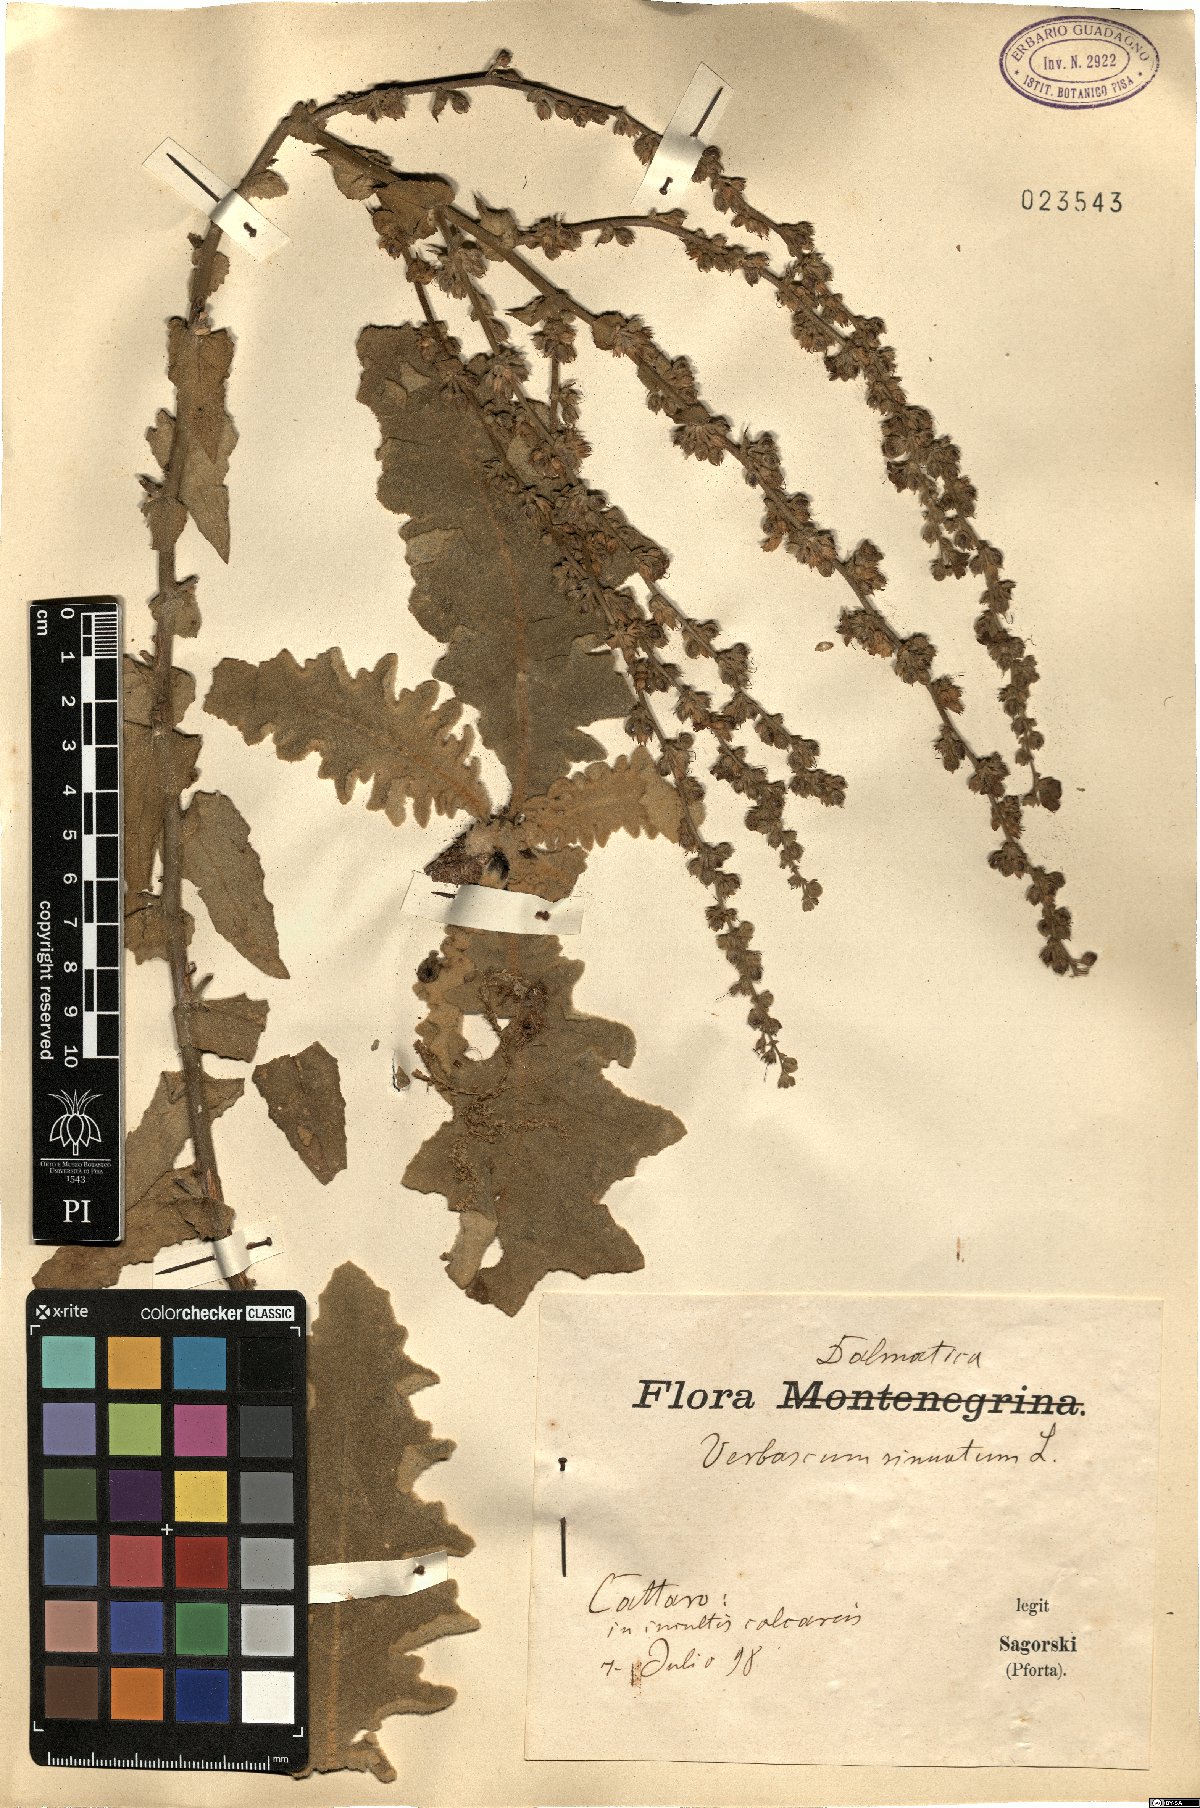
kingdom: Plantae
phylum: Tracheophyta
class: Magnoliopsida
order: Lamiales
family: Scrophulariaceae
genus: Verbascum
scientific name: Verbascum sinuatum
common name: Wavyleaf mullein
